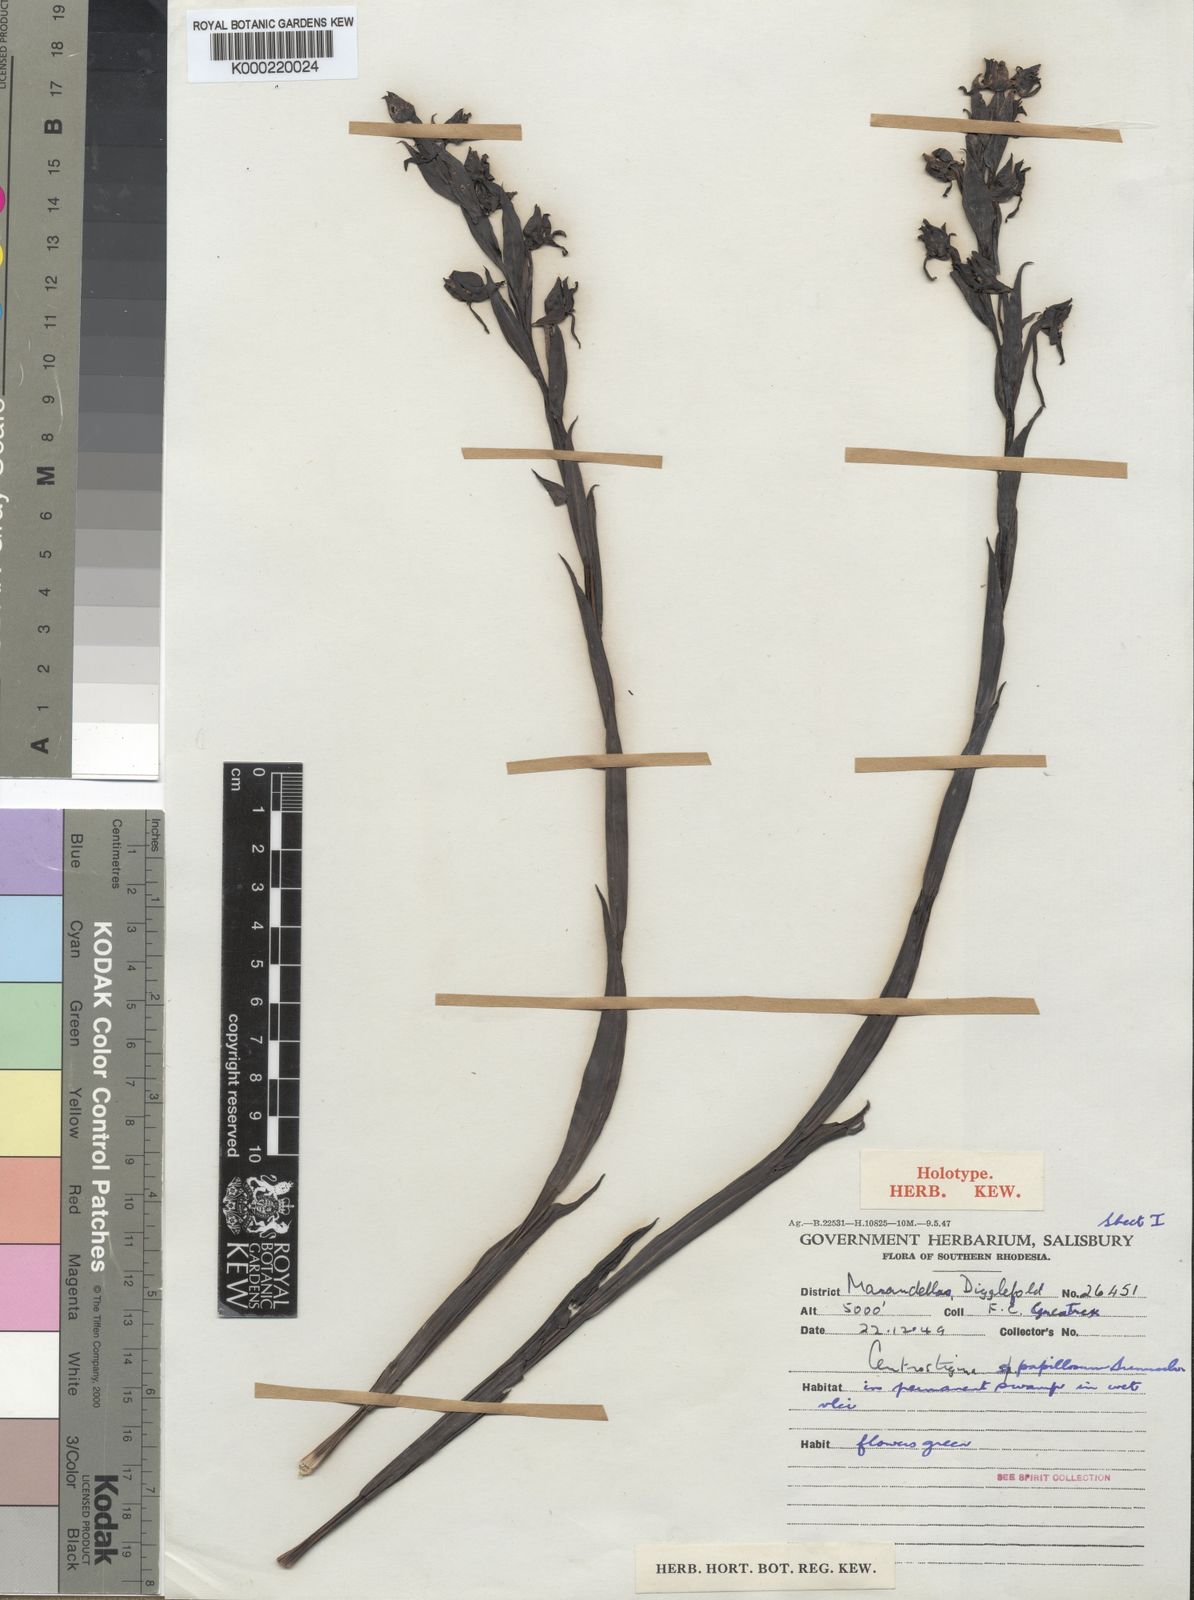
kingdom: Plantae
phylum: Tracheophyta
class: Liliopsida
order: Asparagales
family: Orchidaceae
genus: Centrostigma
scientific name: Centrostigma papillosum
